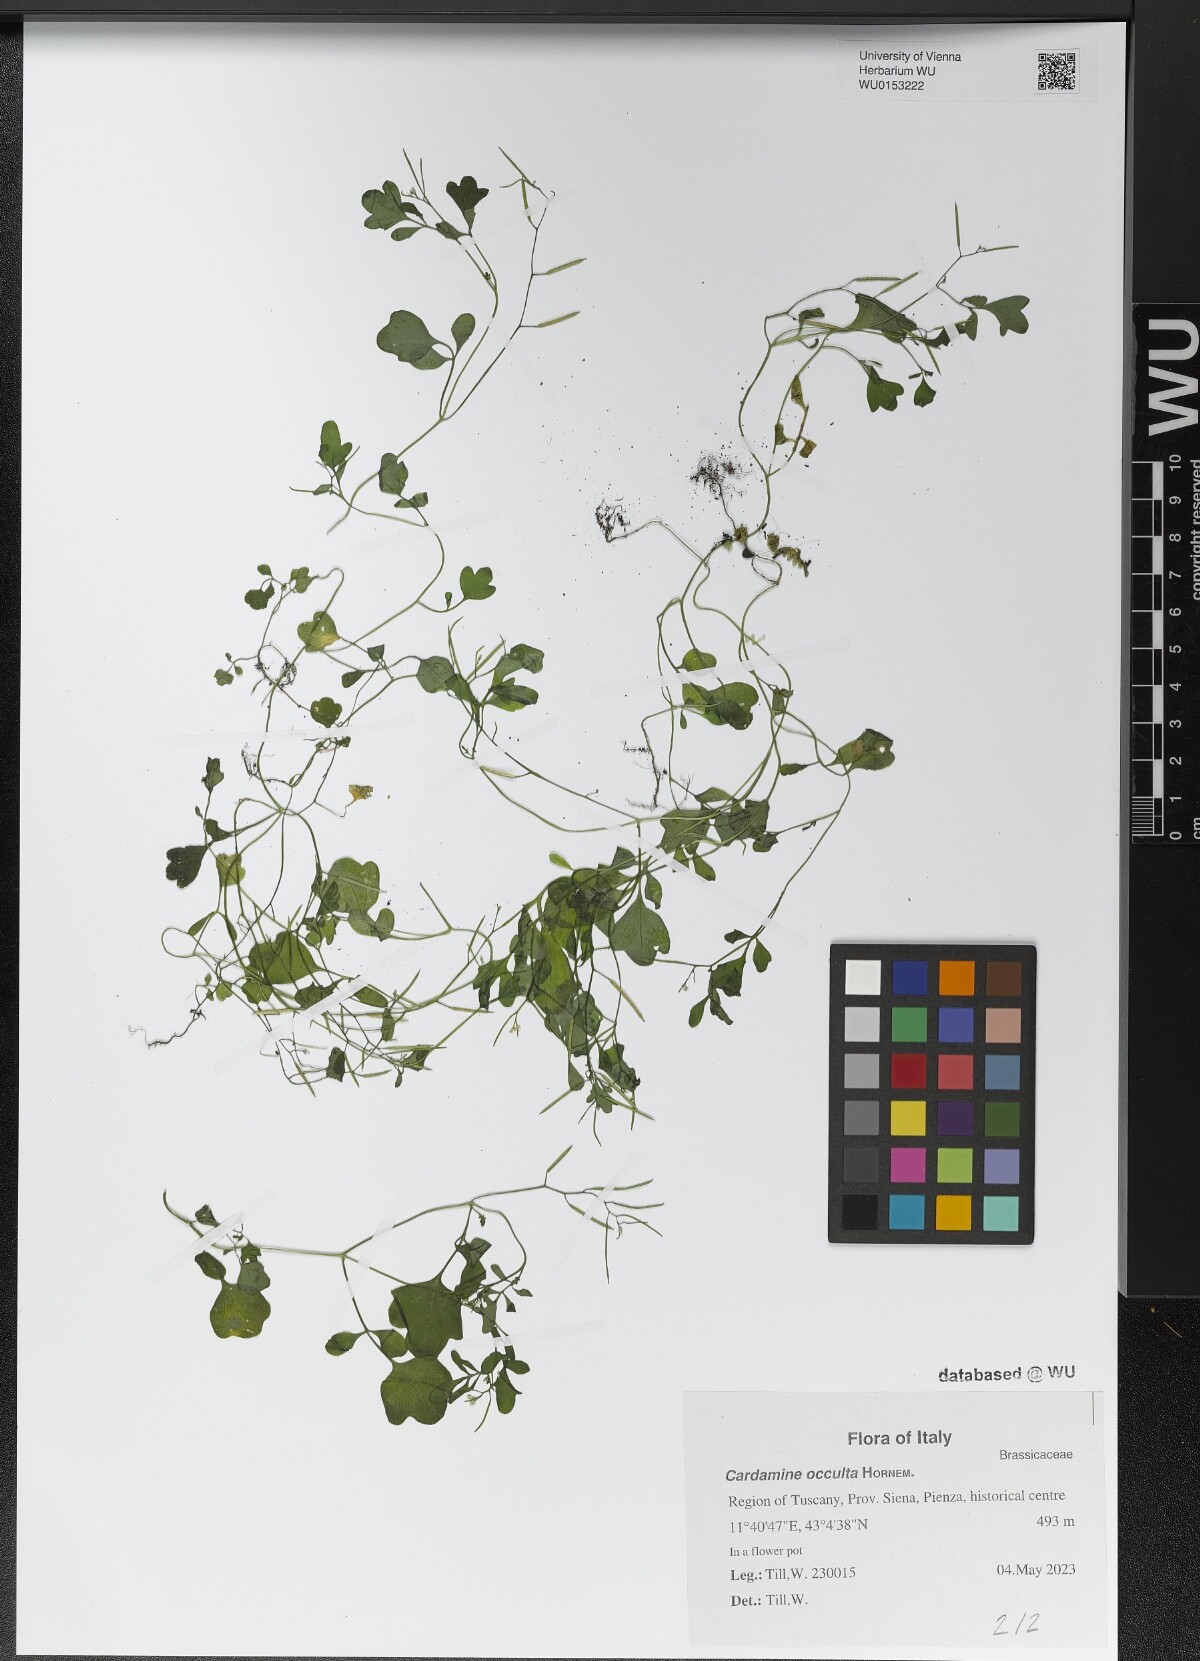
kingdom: Plantae
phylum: Tracheophyta
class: Magnoliopsida
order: Brassicales
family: Brassicaceae
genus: Cardamine
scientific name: Cardamine occulta
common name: Asian wavy bittercress
